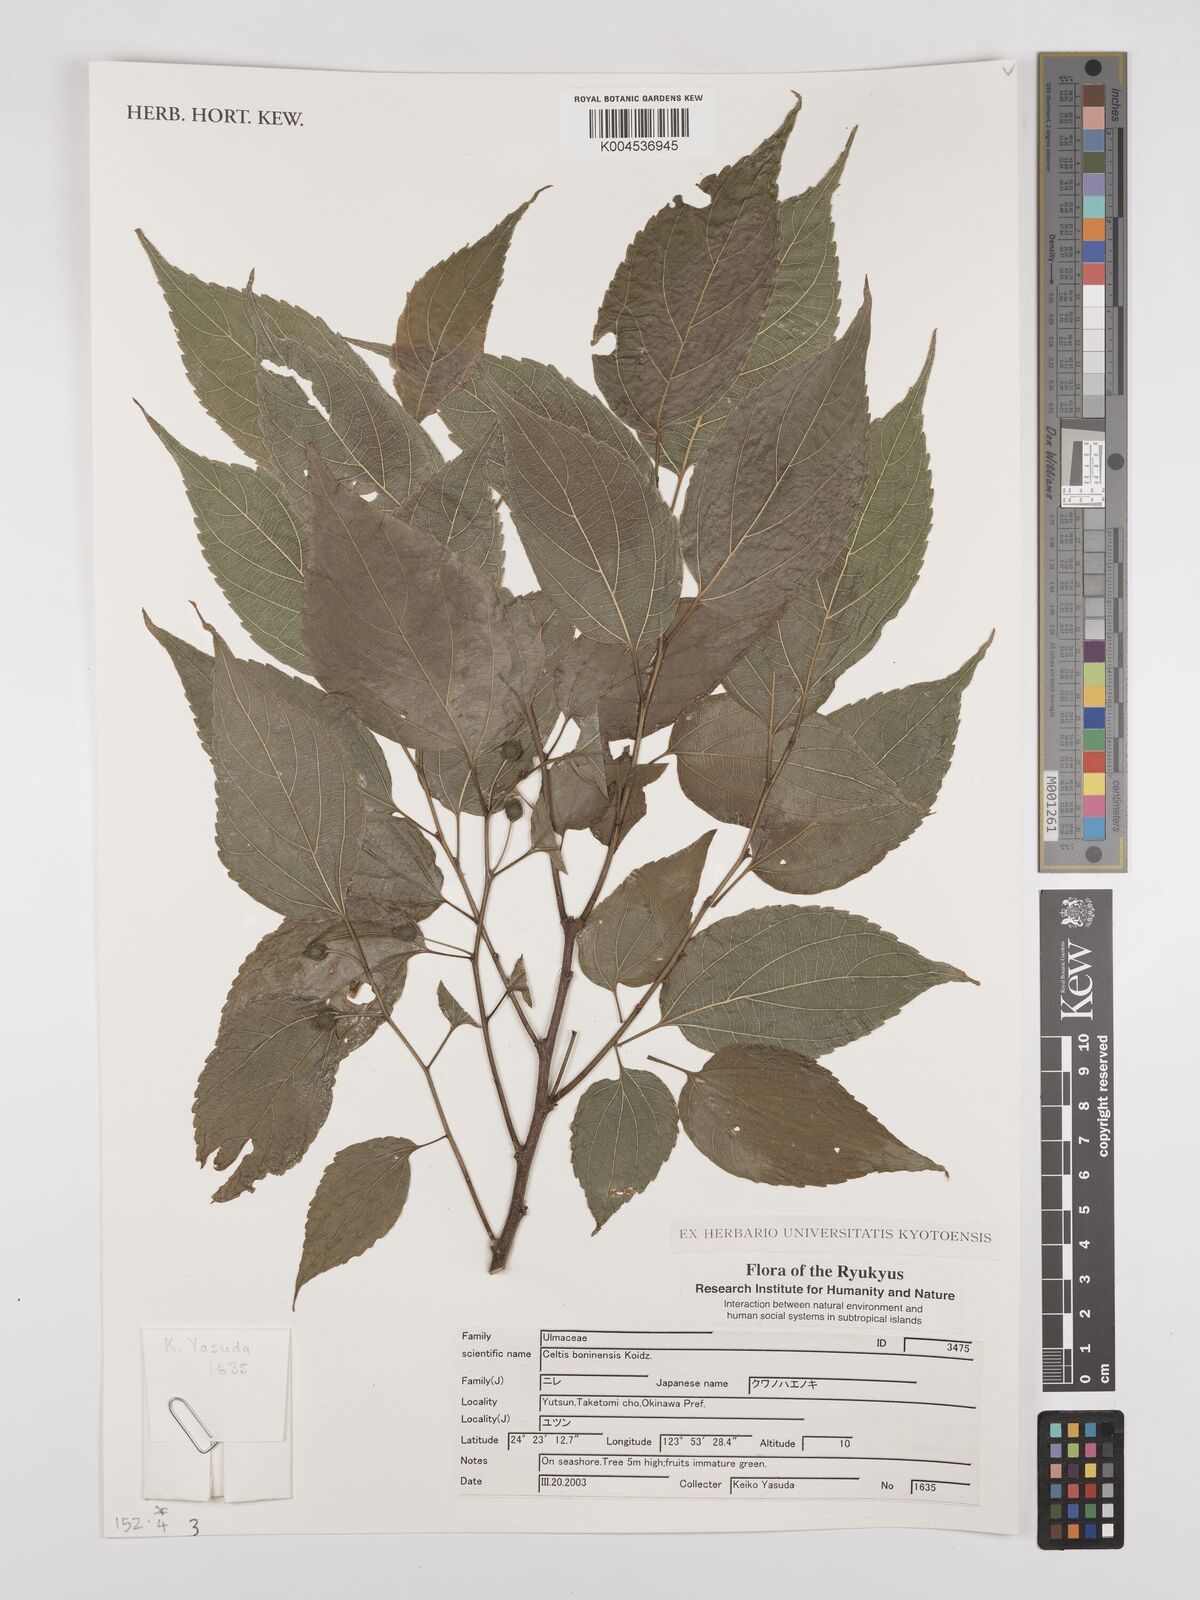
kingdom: Plantae
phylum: Tracheophyta
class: Magnoliopsida
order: Rosales
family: Cannabaceae
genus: Celtis
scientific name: Celtis boninensis
